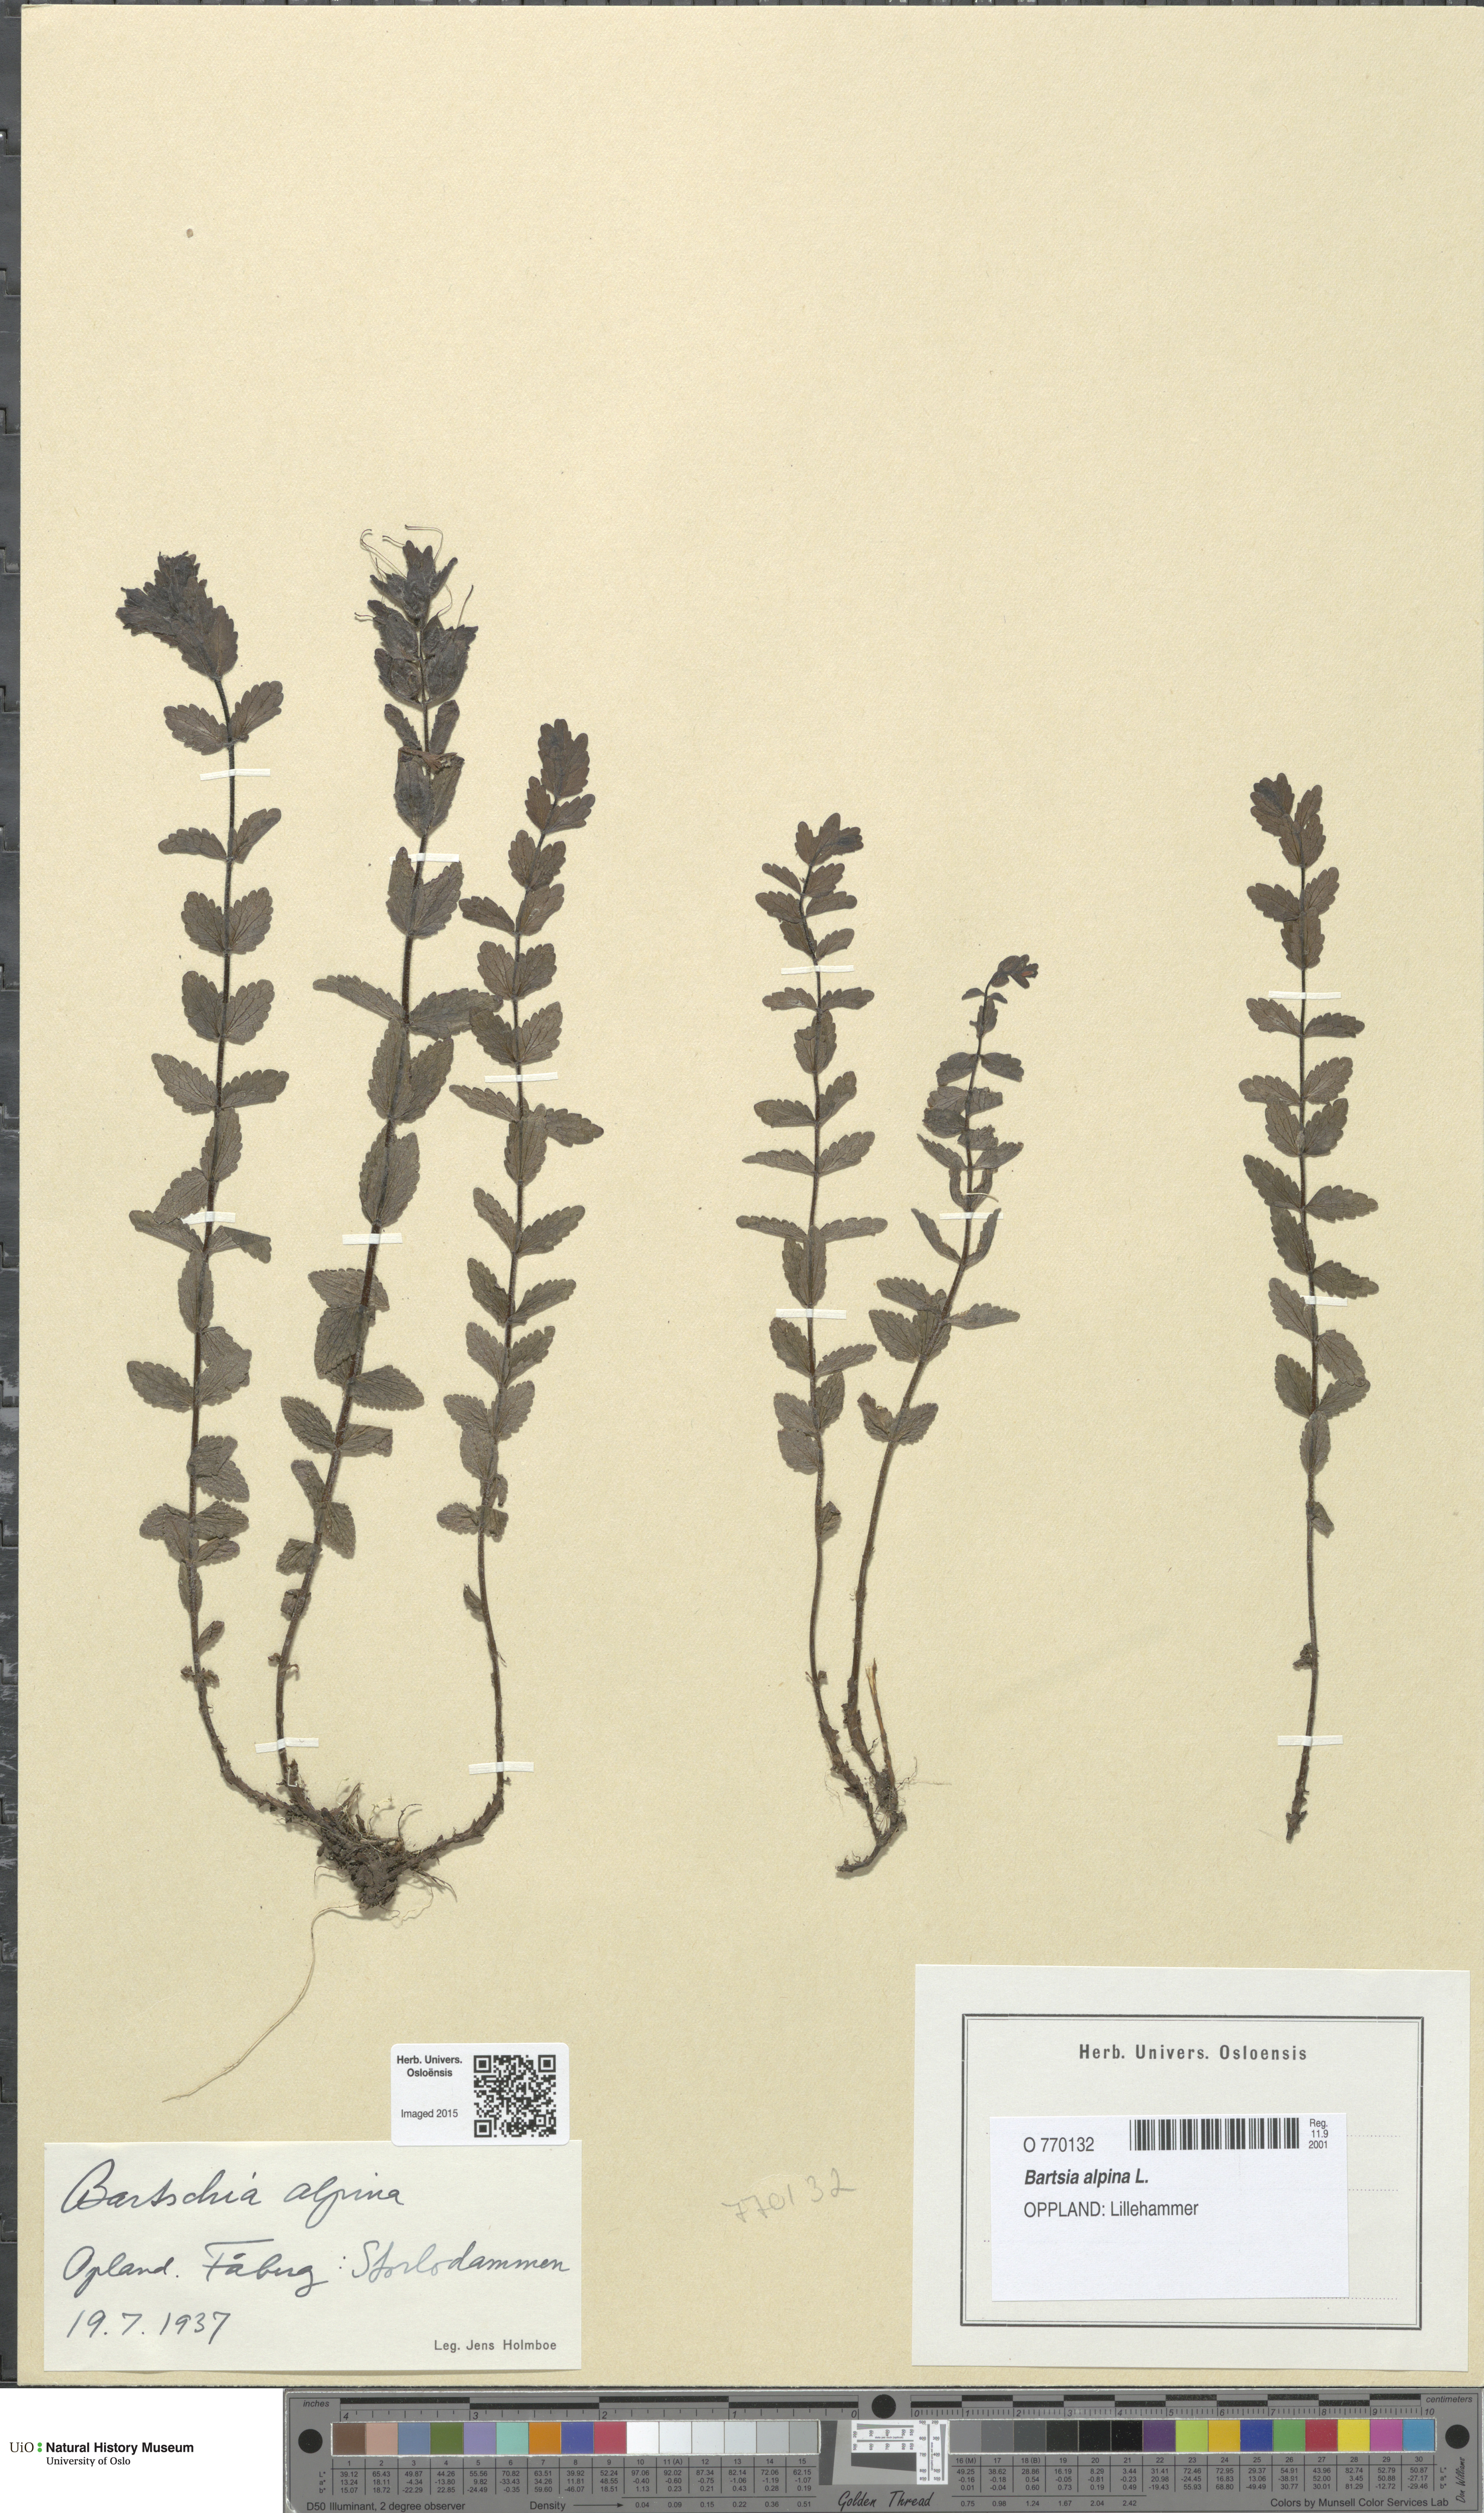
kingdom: Plantae
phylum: Tracheophyta
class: Magnoliopsida
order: Lamiales
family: Orobanchaceae
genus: Bartsia
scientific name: Bartsia alpina
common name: Alpine bartsia
